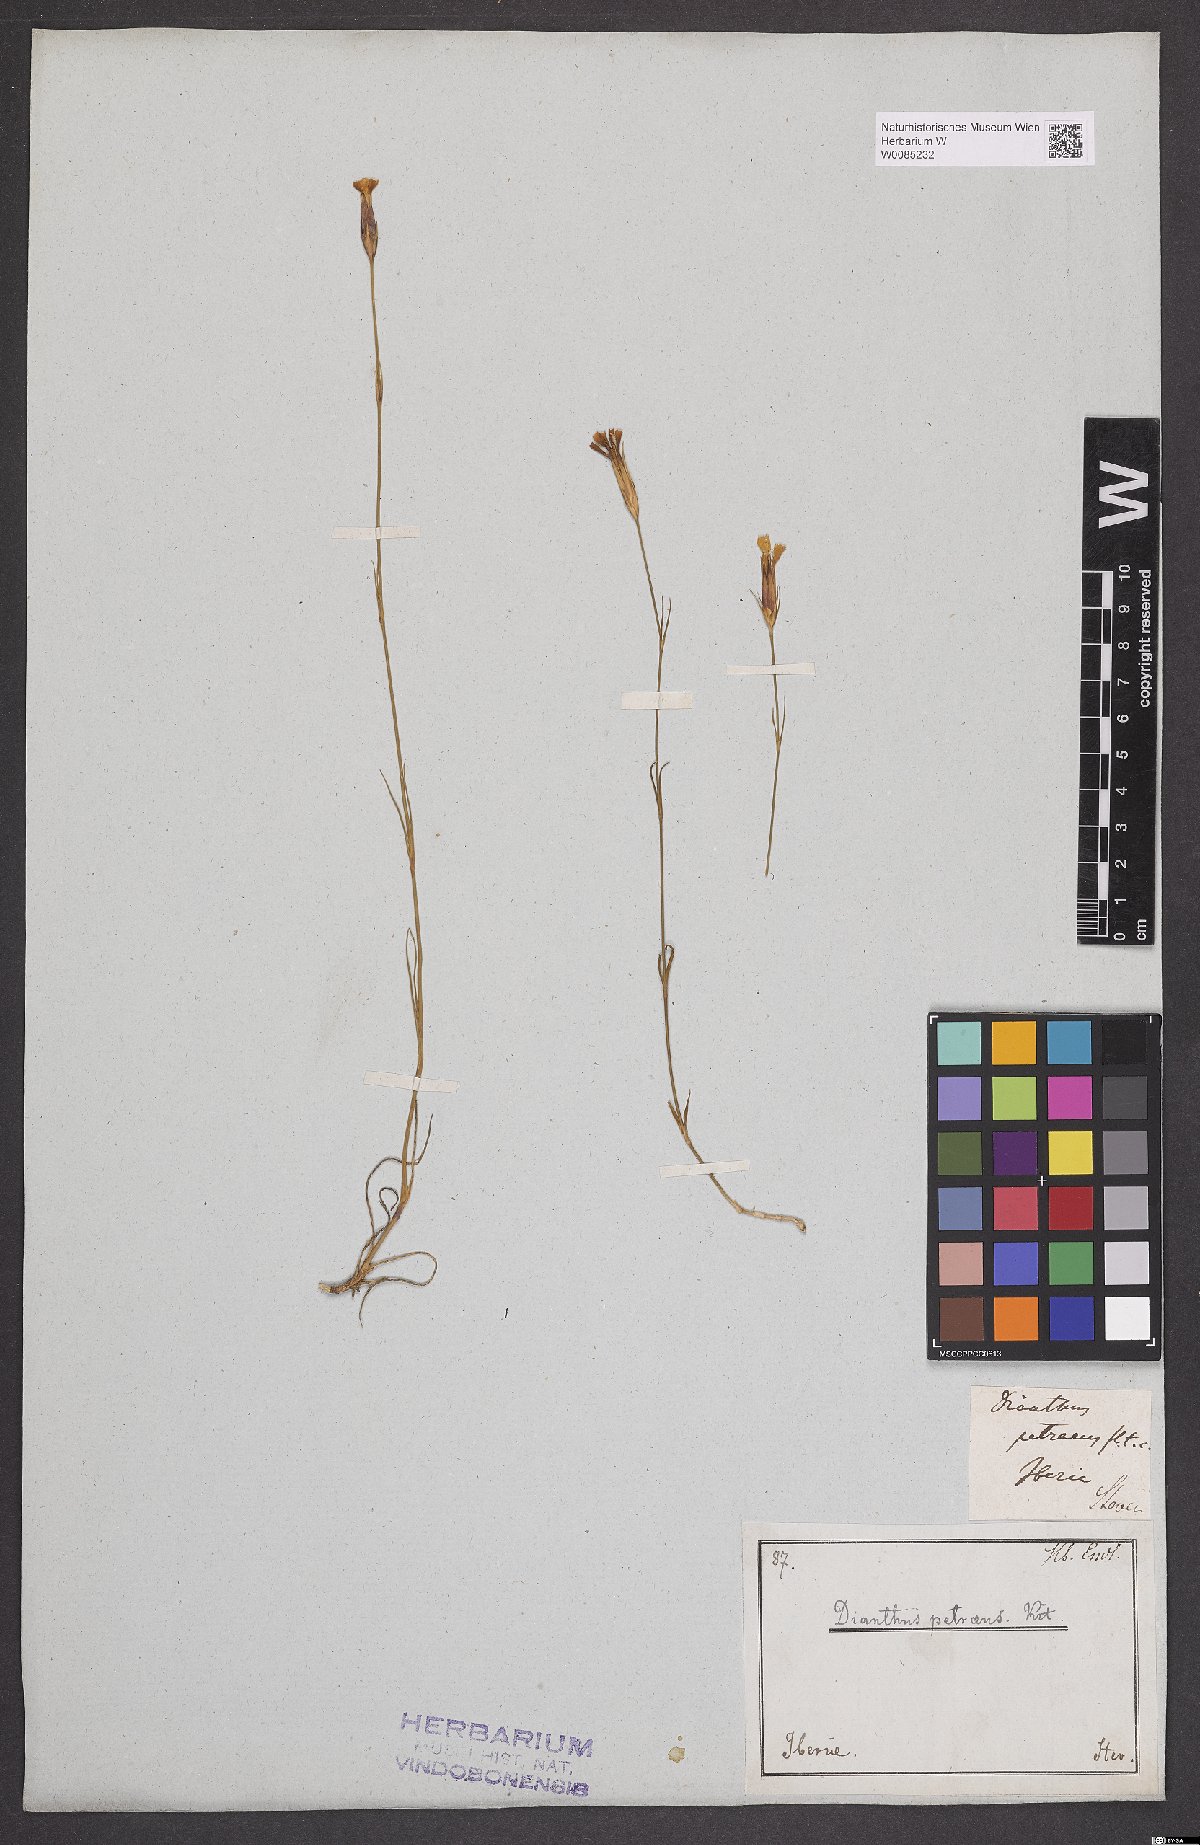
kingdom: Plantae
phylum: Tracheophyta
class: Magnoliopsida
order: Caryophyllales
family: Caryophyllaceae
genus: Dianthus
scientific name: Dianthus petraeus
